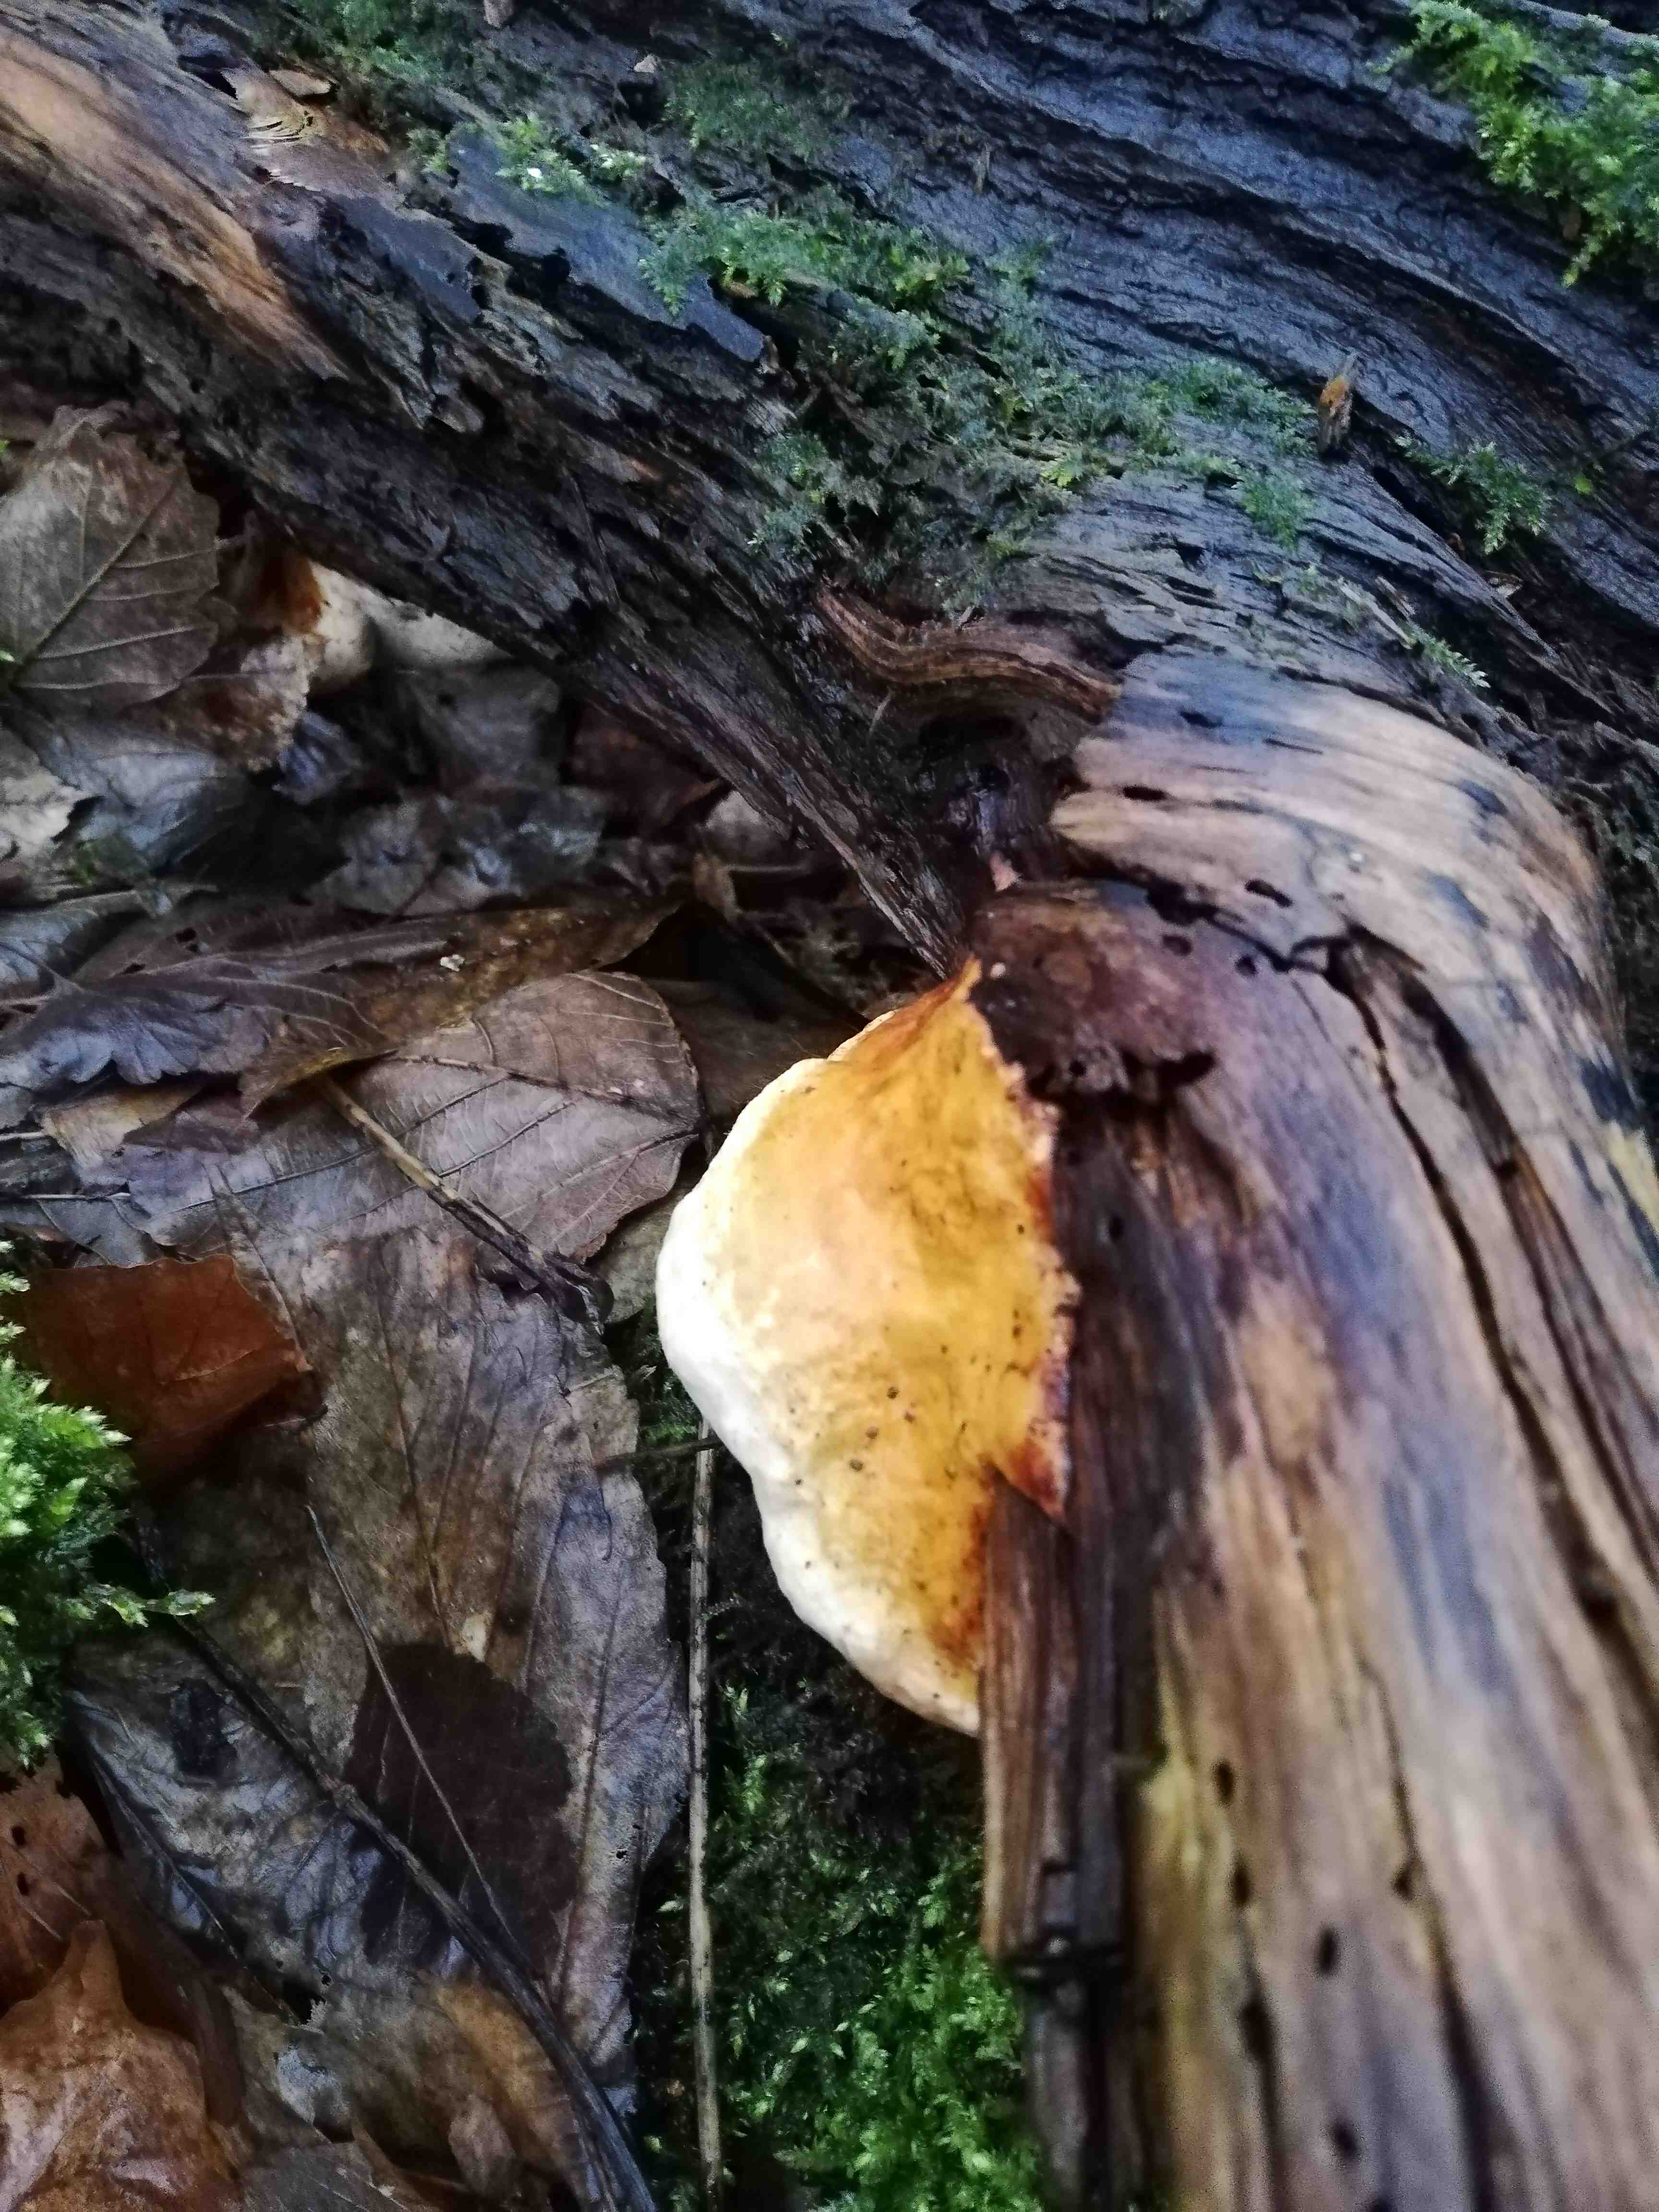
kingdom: Fungi
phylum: Basidiomycota
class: Agaricomycetes
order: Polyporales
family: Fomitopsidaceae
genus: Fomitopsis
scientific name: Fomitopsis pinicola
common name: randbæltet hovporesvamp
